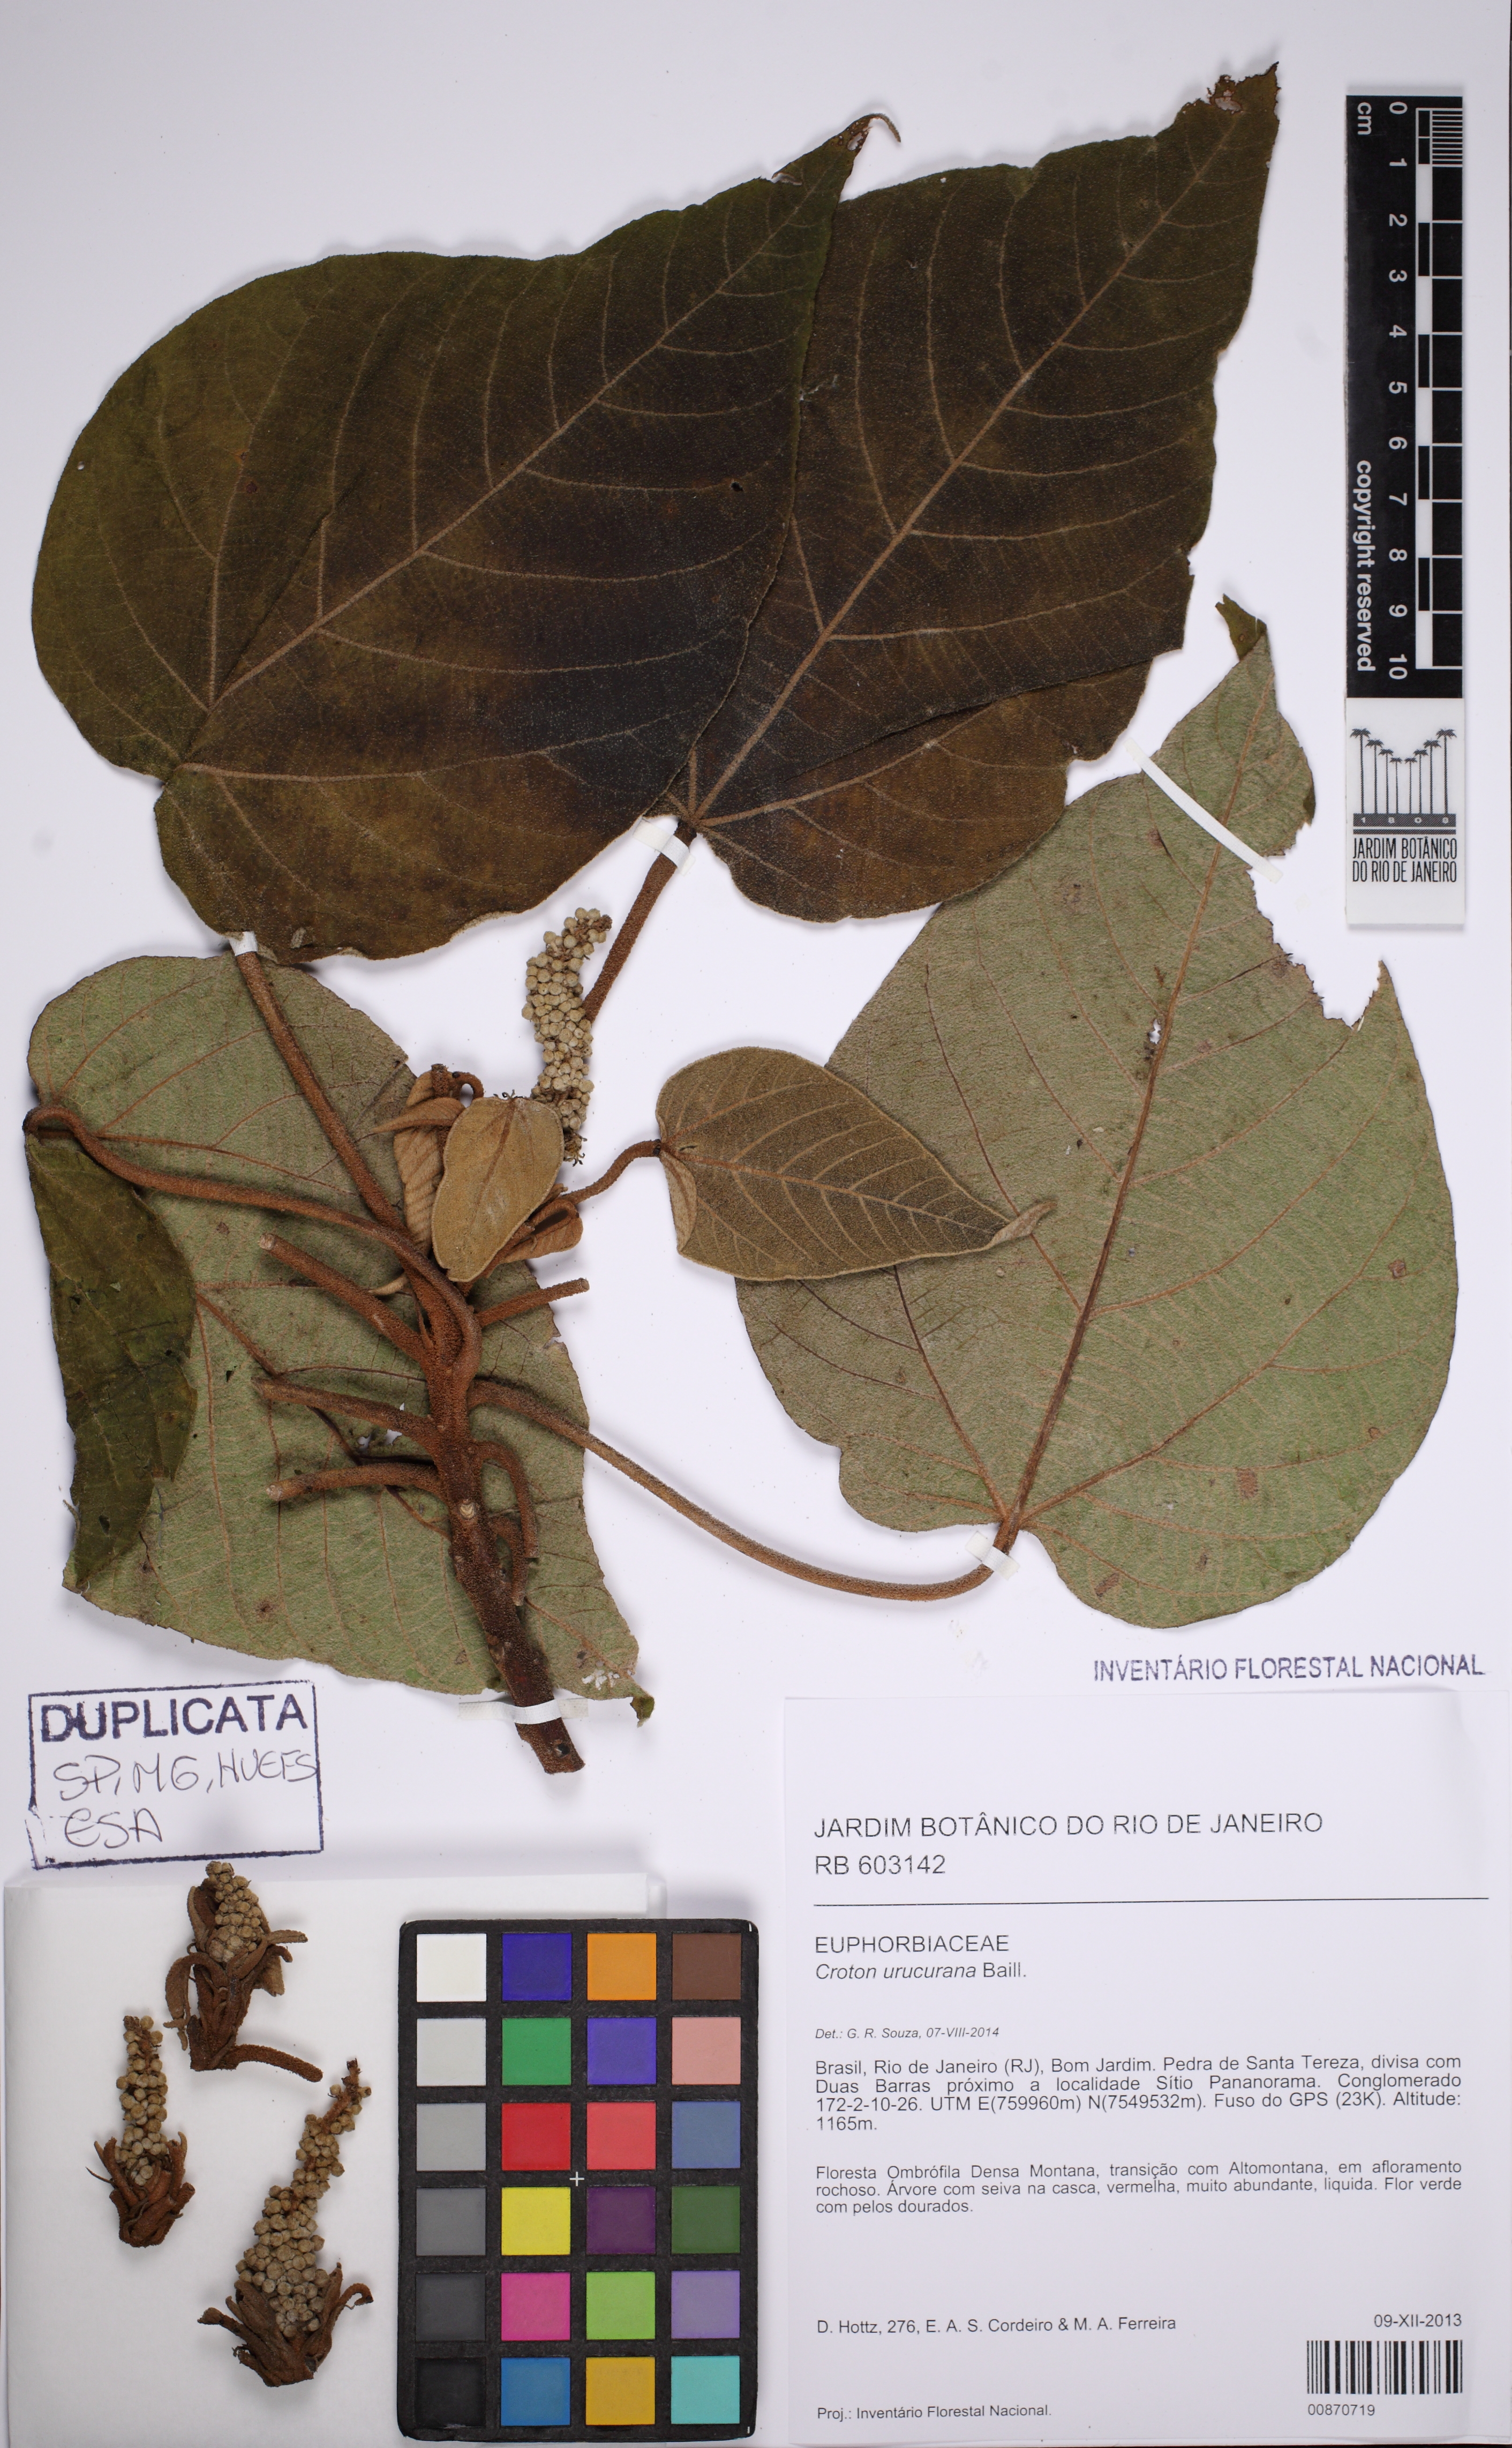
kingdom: Plantae
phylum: Tracheophyta
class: Magnoliopsida
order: Malpighiales
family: Euphorbiaceae
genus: Croton
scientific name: Croton urucurana
